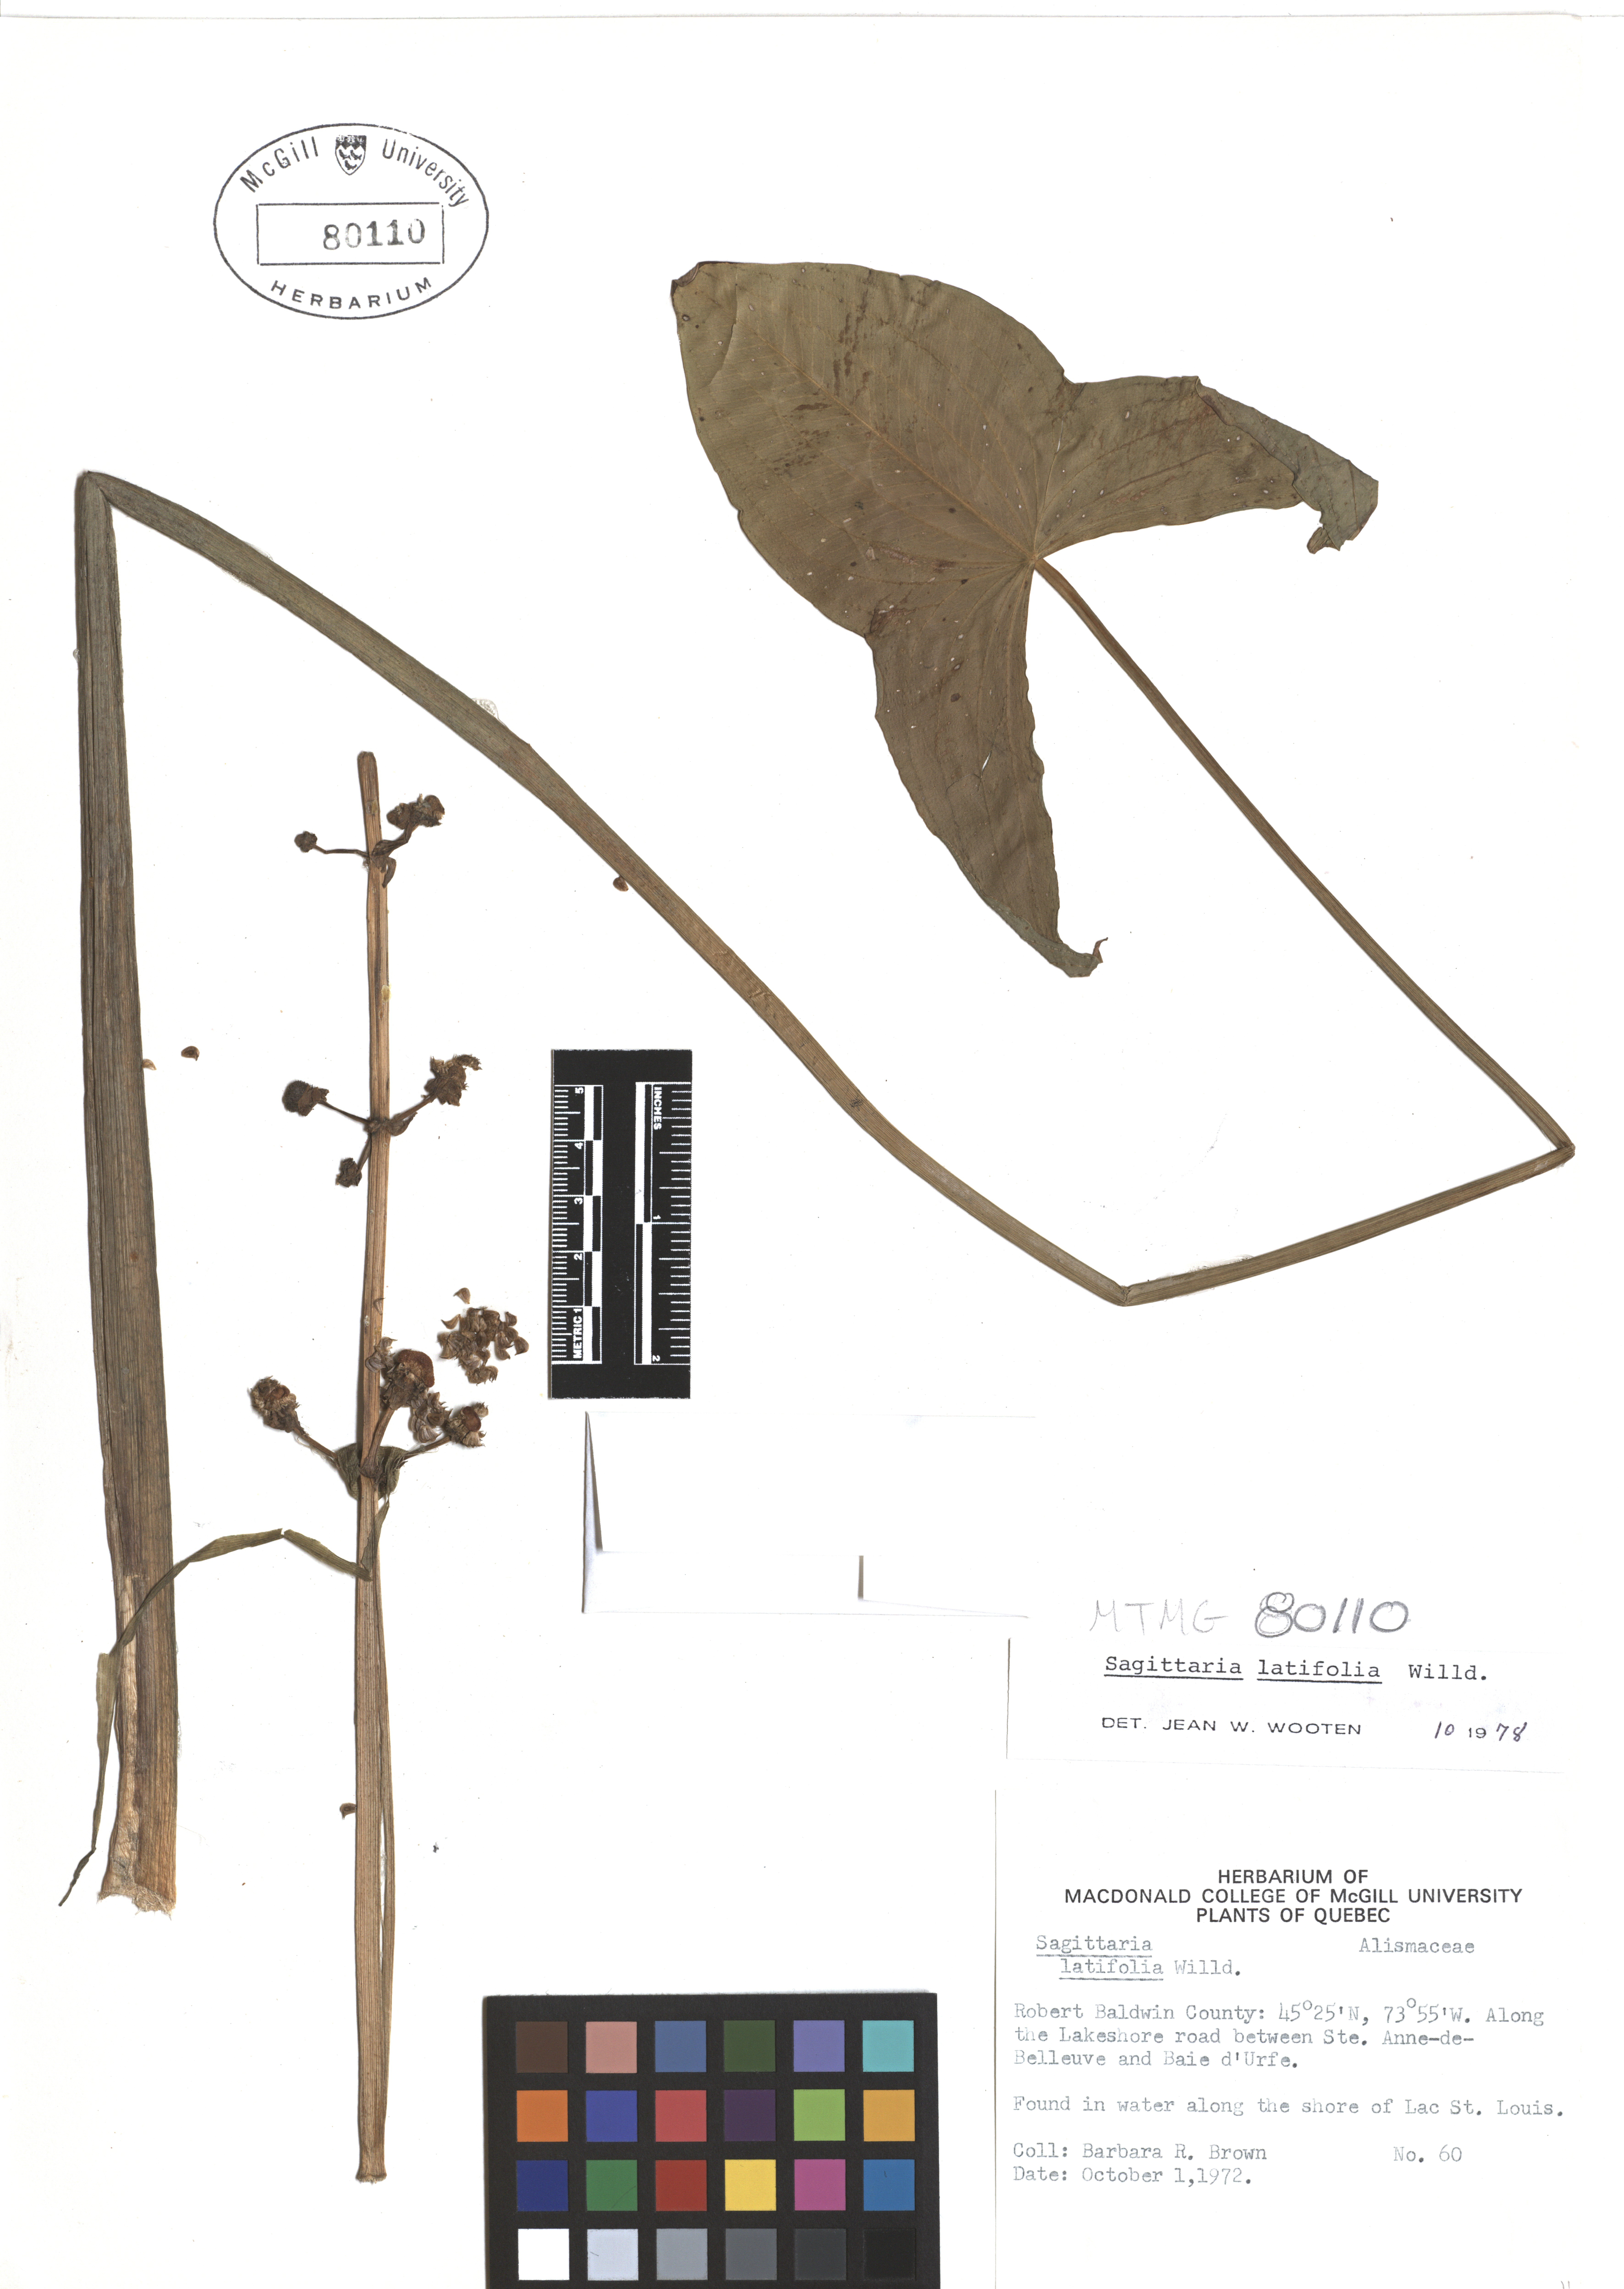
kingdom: Plantae
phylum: Tracheophyta
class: Liliopsida
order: Alismatales
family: Alismataceae
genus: Sagittaria
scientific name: Sagittaria latifolia
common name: Duck-potato
